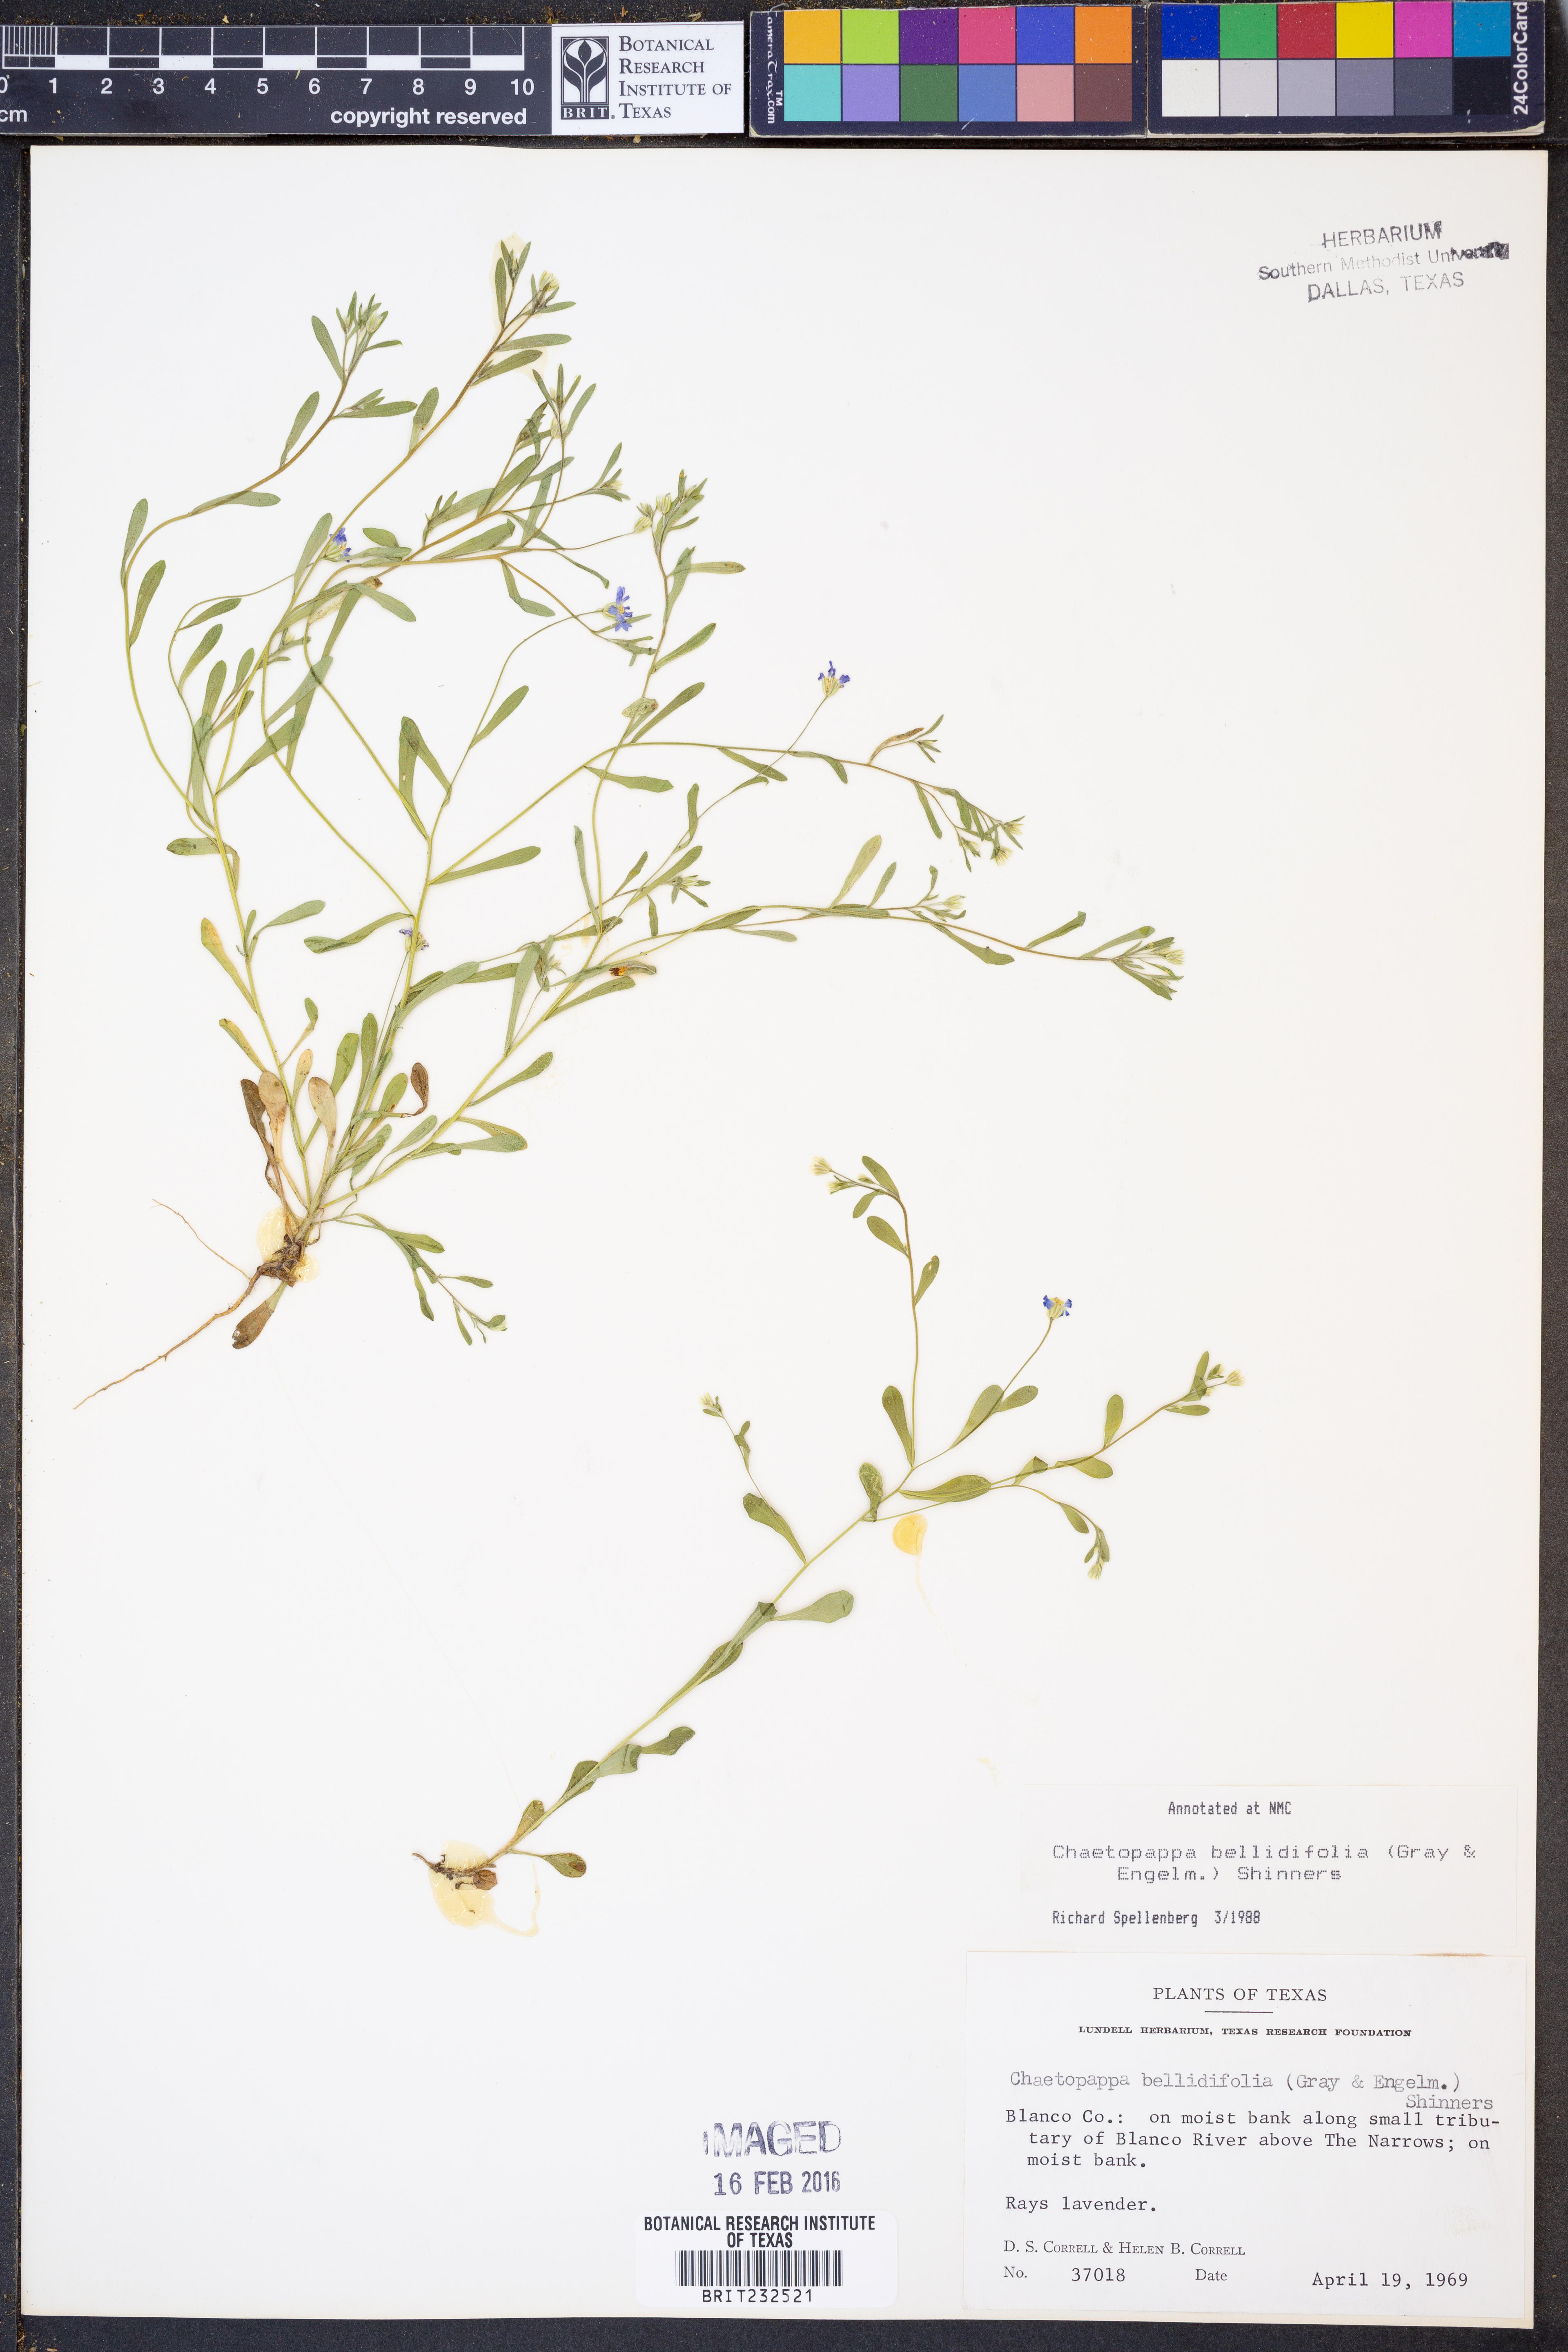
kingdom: Plantae
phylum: Tracheophyta
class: Magnoliopsida
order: Asterales
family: Asteraceae
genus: Chaetopappa
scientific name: Chaetopappa bellidifolia
